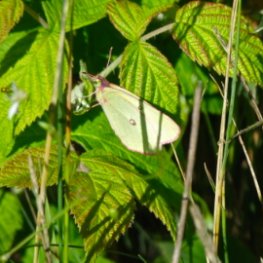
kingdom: Animalia
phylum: Arthropoda
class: Insecta
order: Lepidoptera
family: Pieridae
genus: Colias
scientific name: Colias interior
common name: Pink-edged Sulphur
